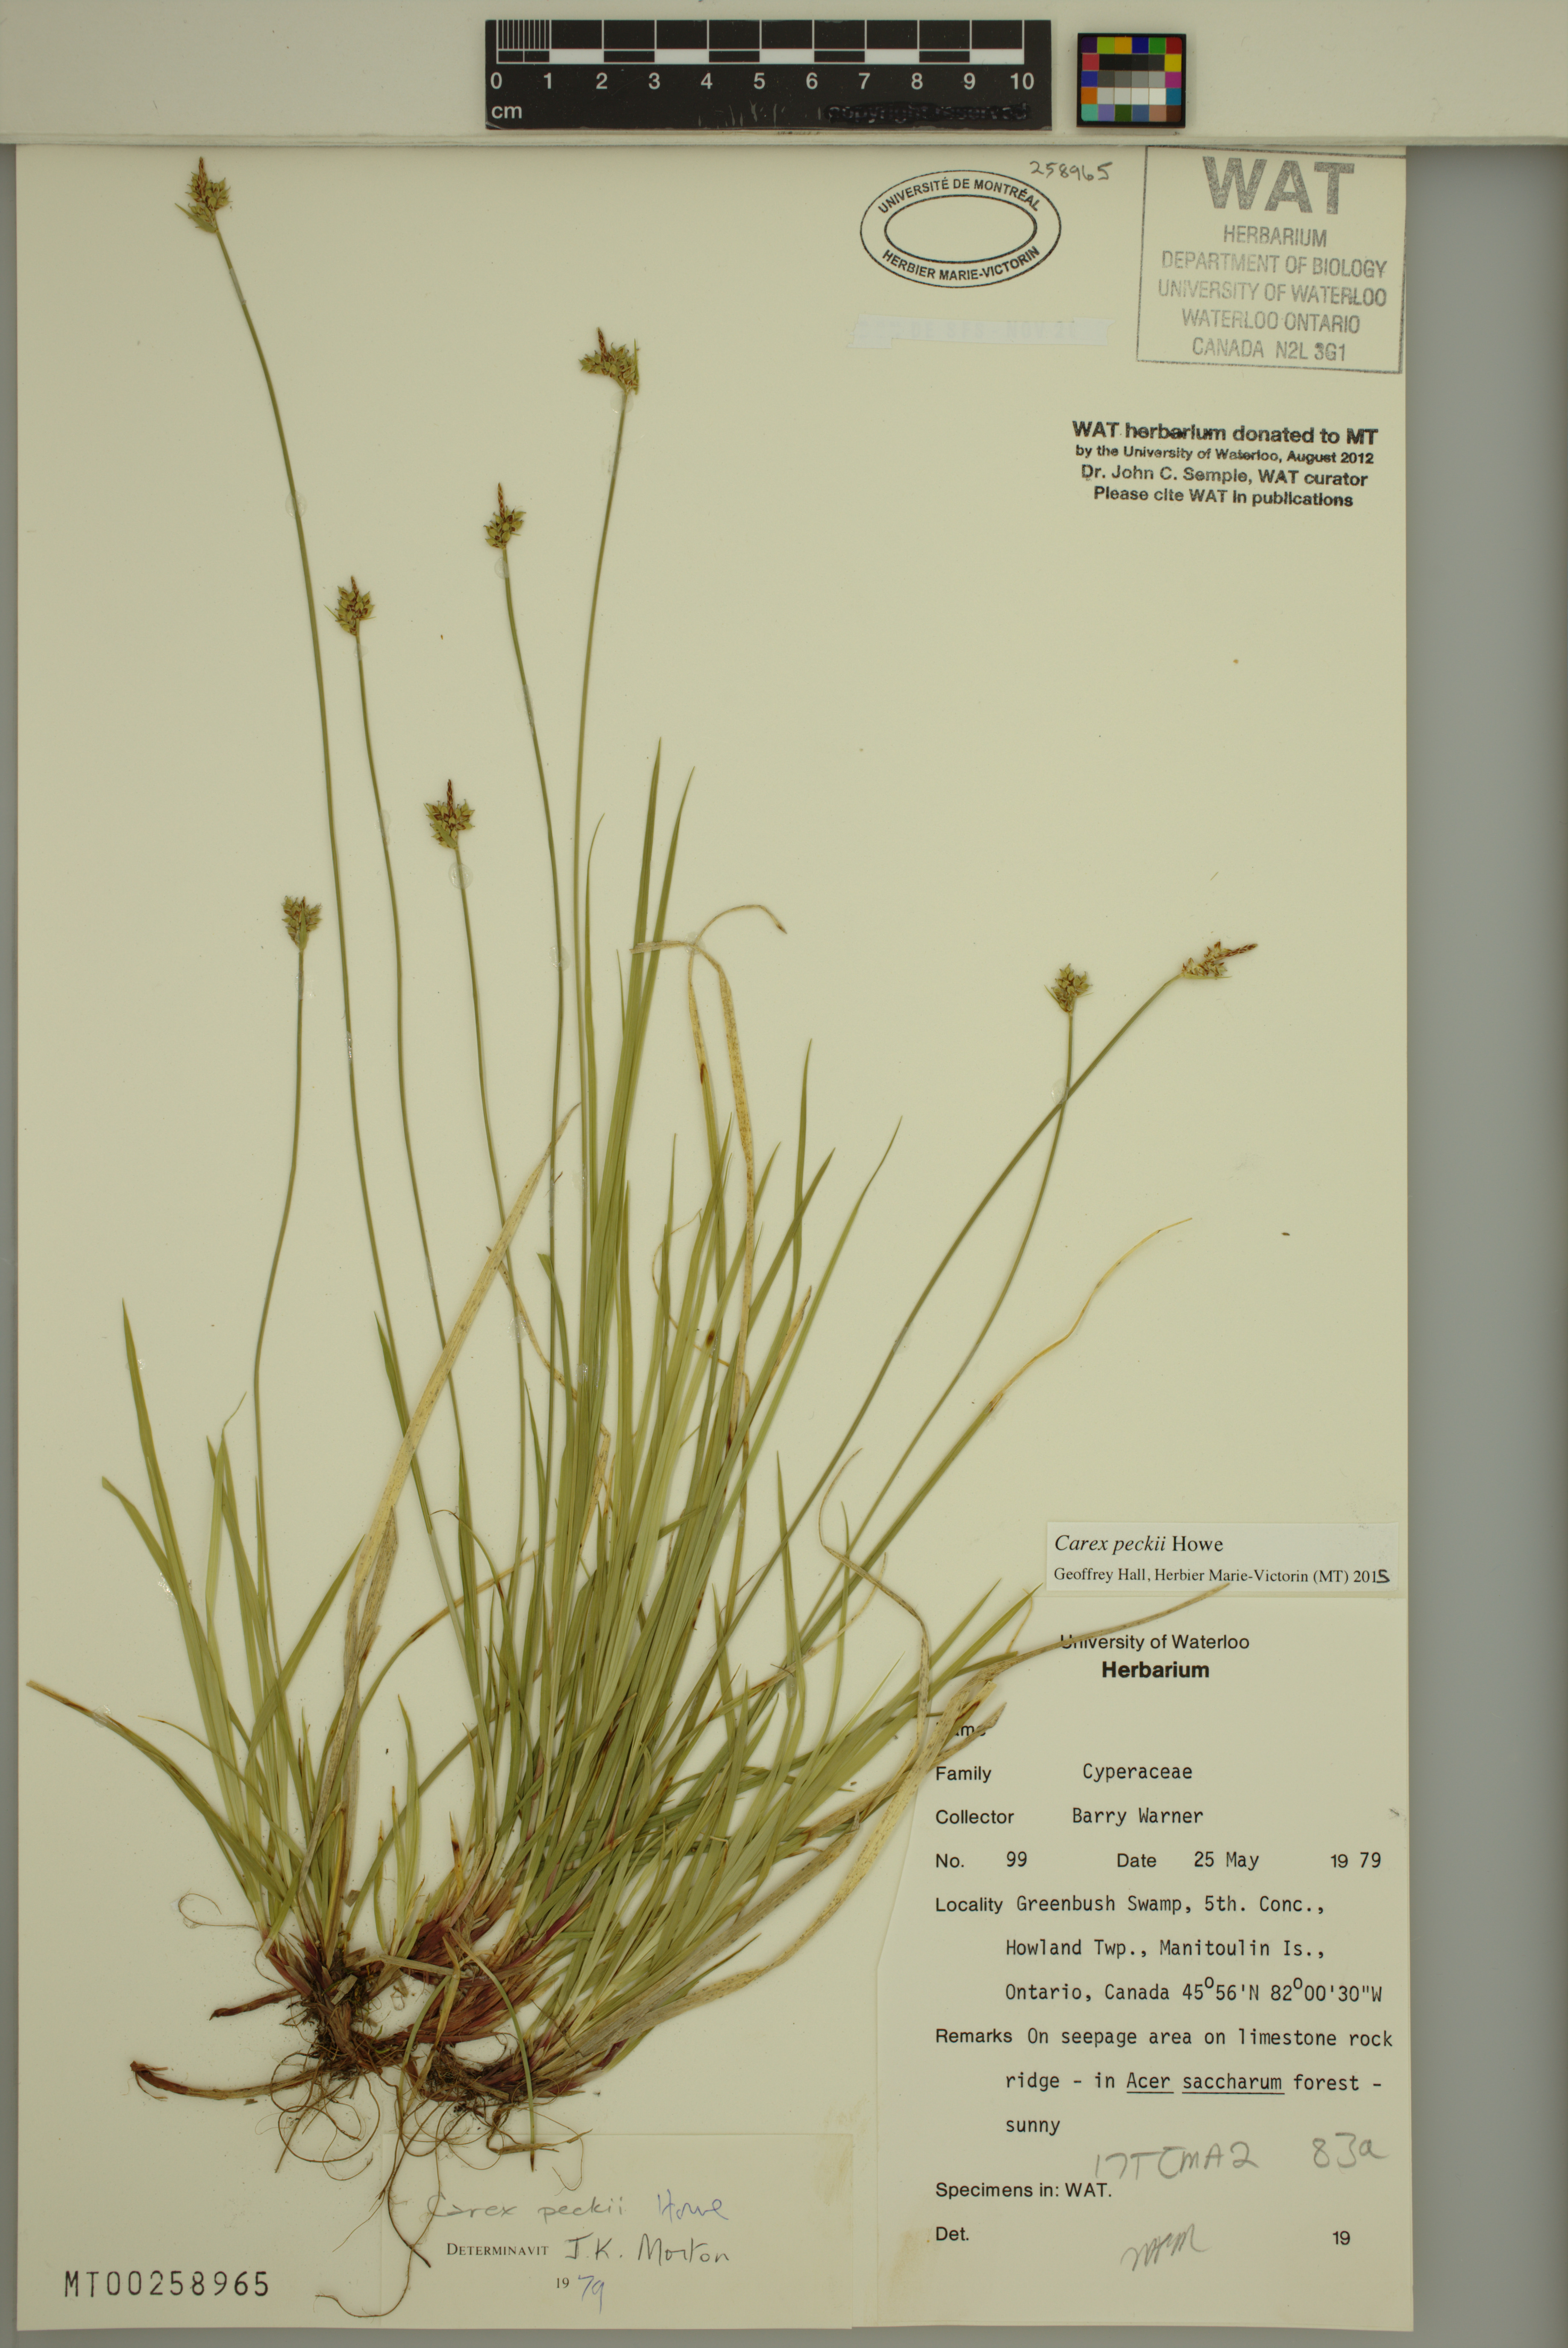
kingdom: Plantae
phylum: Tracheophyta
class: Liliopsida
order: Poales
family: Cyperaceae
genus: Carex
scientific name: Carex peckii
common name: Peck's oak sedge
